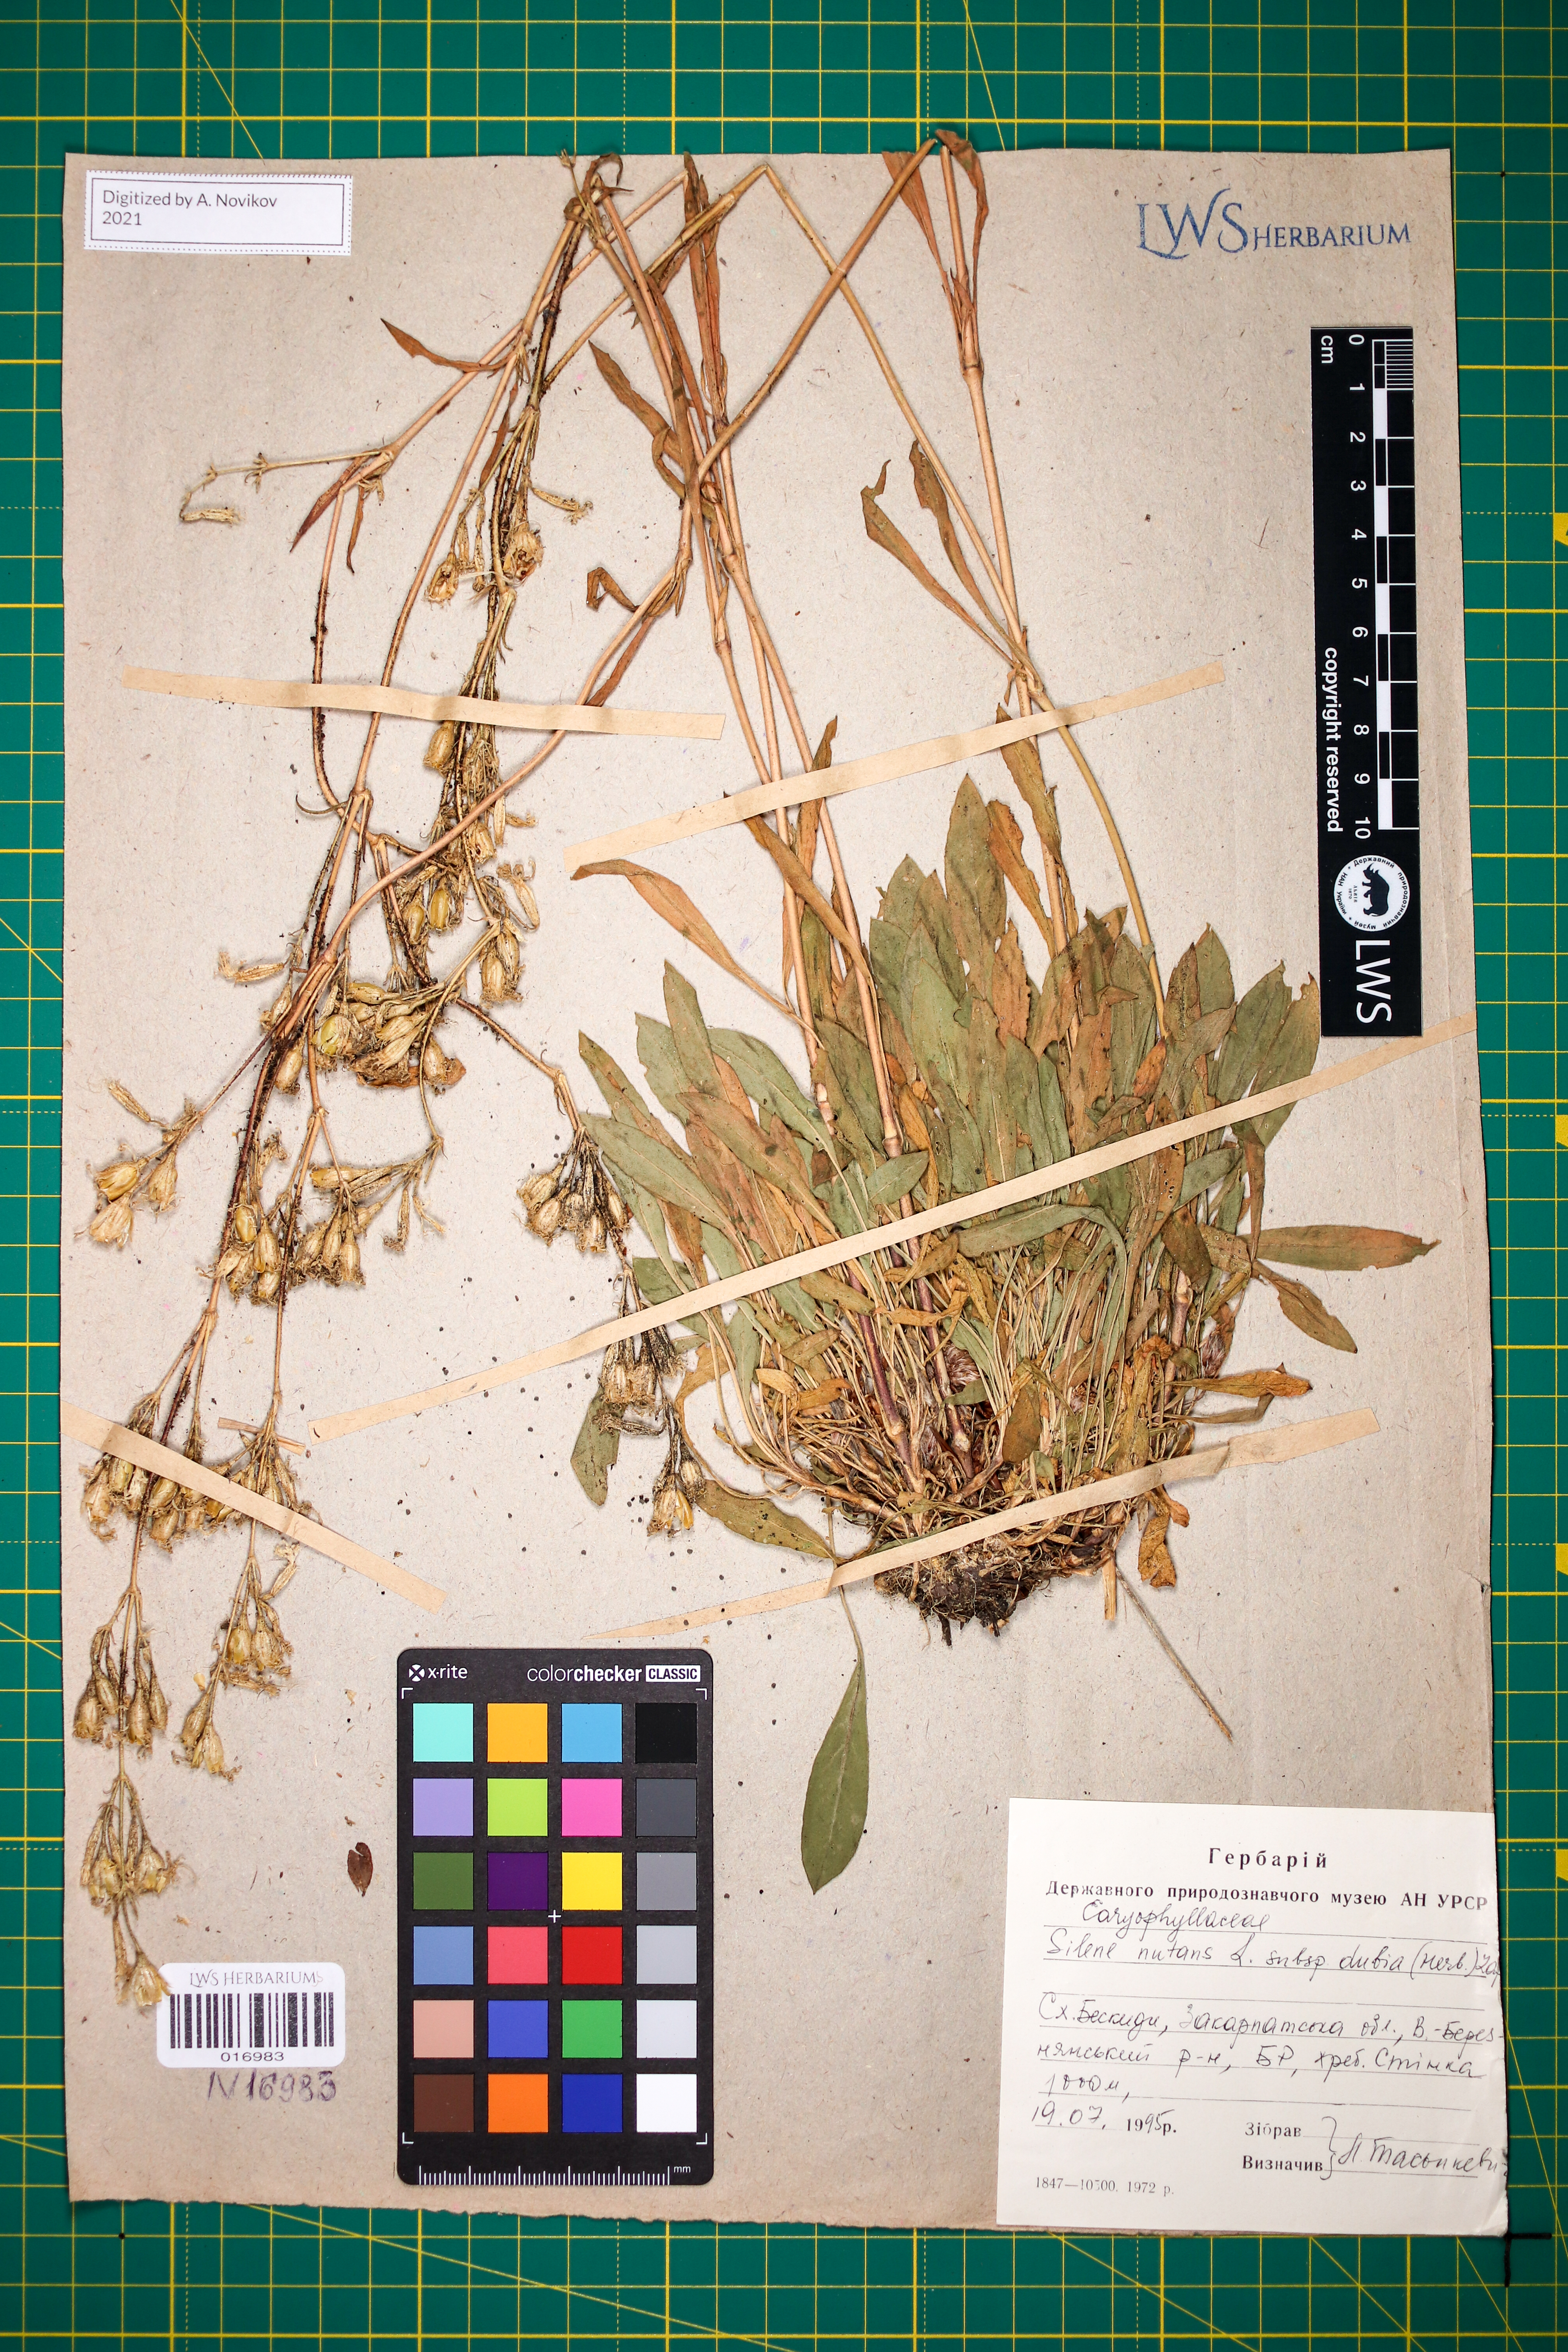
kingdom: Plantae
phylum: Tracheophyta
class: Magnoliopsida
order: Caryophyllales
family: Caryophyllaceae
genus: Silene
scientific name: Silene nutans
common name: Nottingham catchfly
